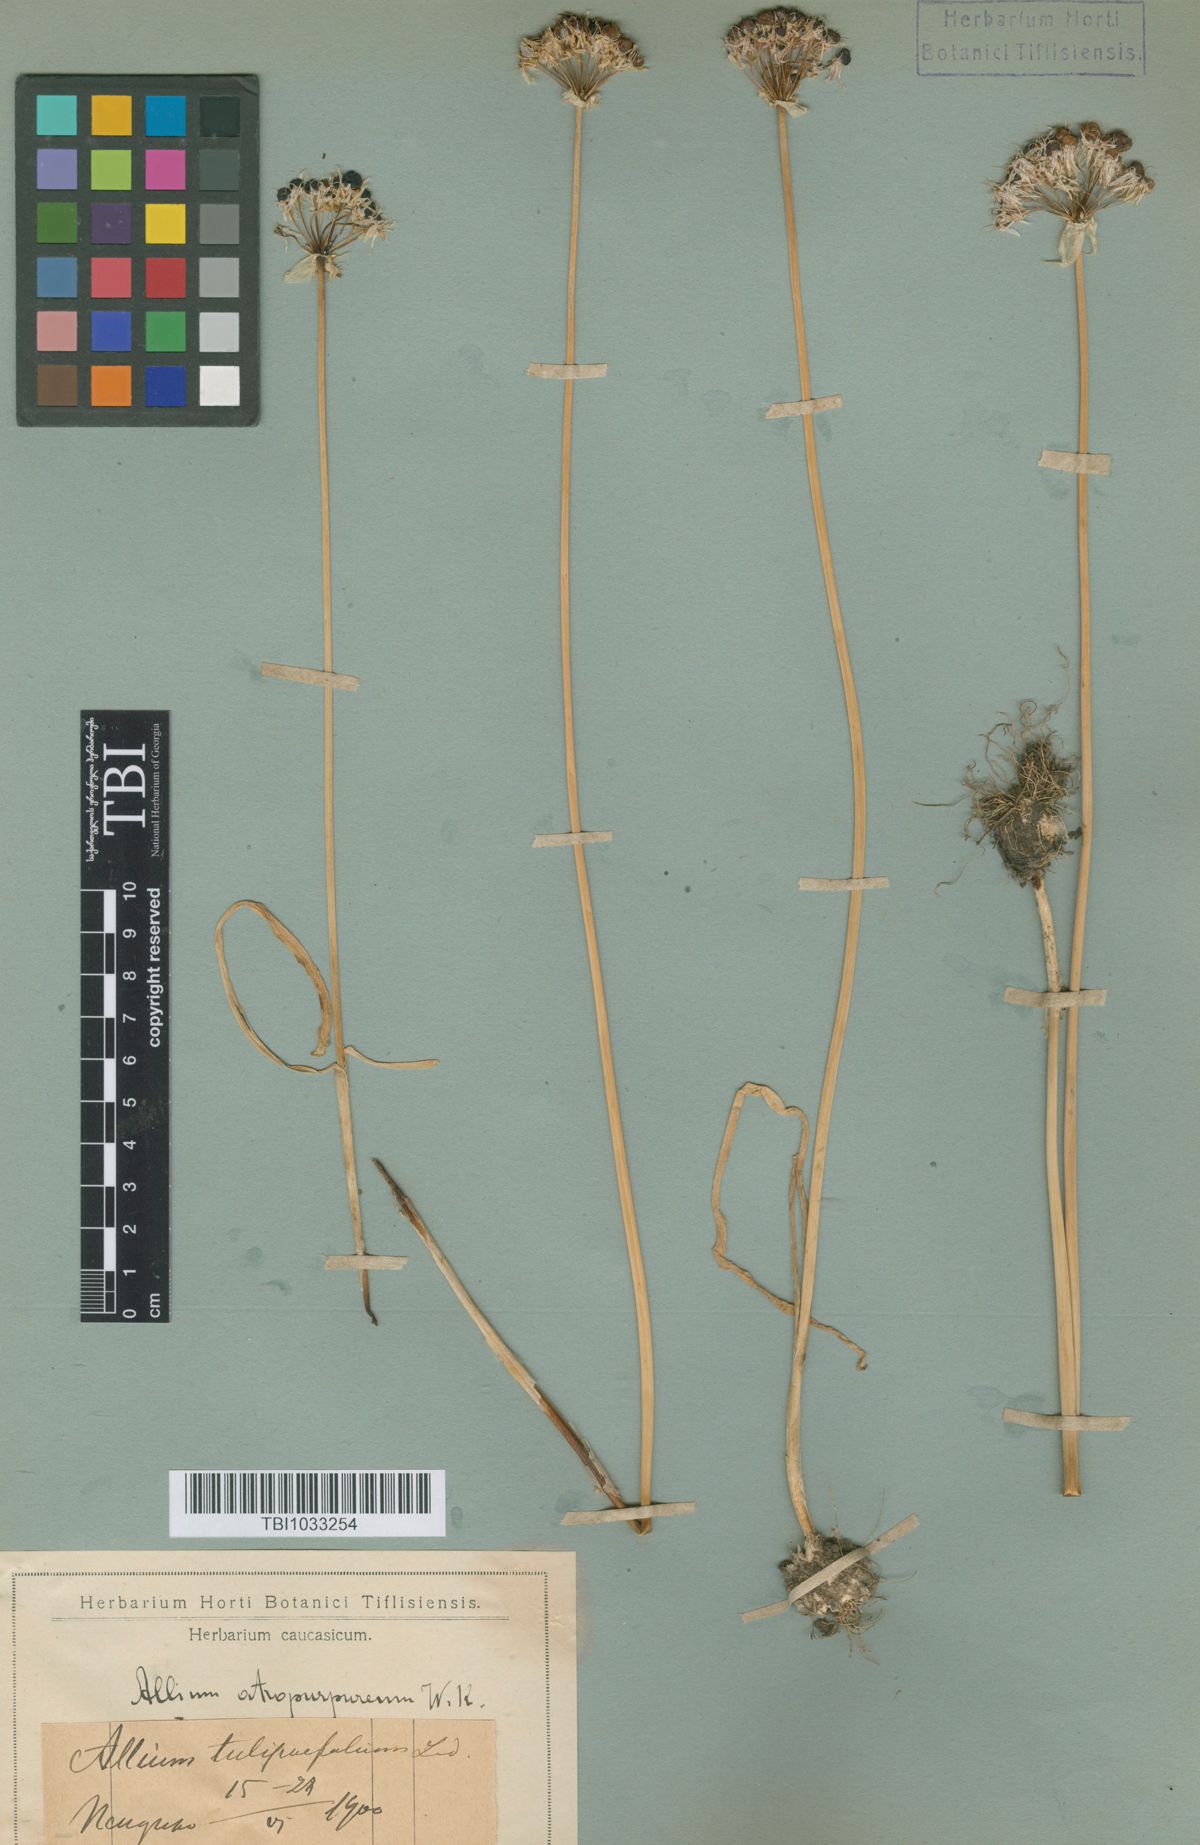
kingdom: Plantae
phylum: Tracheophyta
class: Liliopsida
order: Asparagales
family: Amaryllidaceae
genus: Allium
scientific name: Allium decipiens
